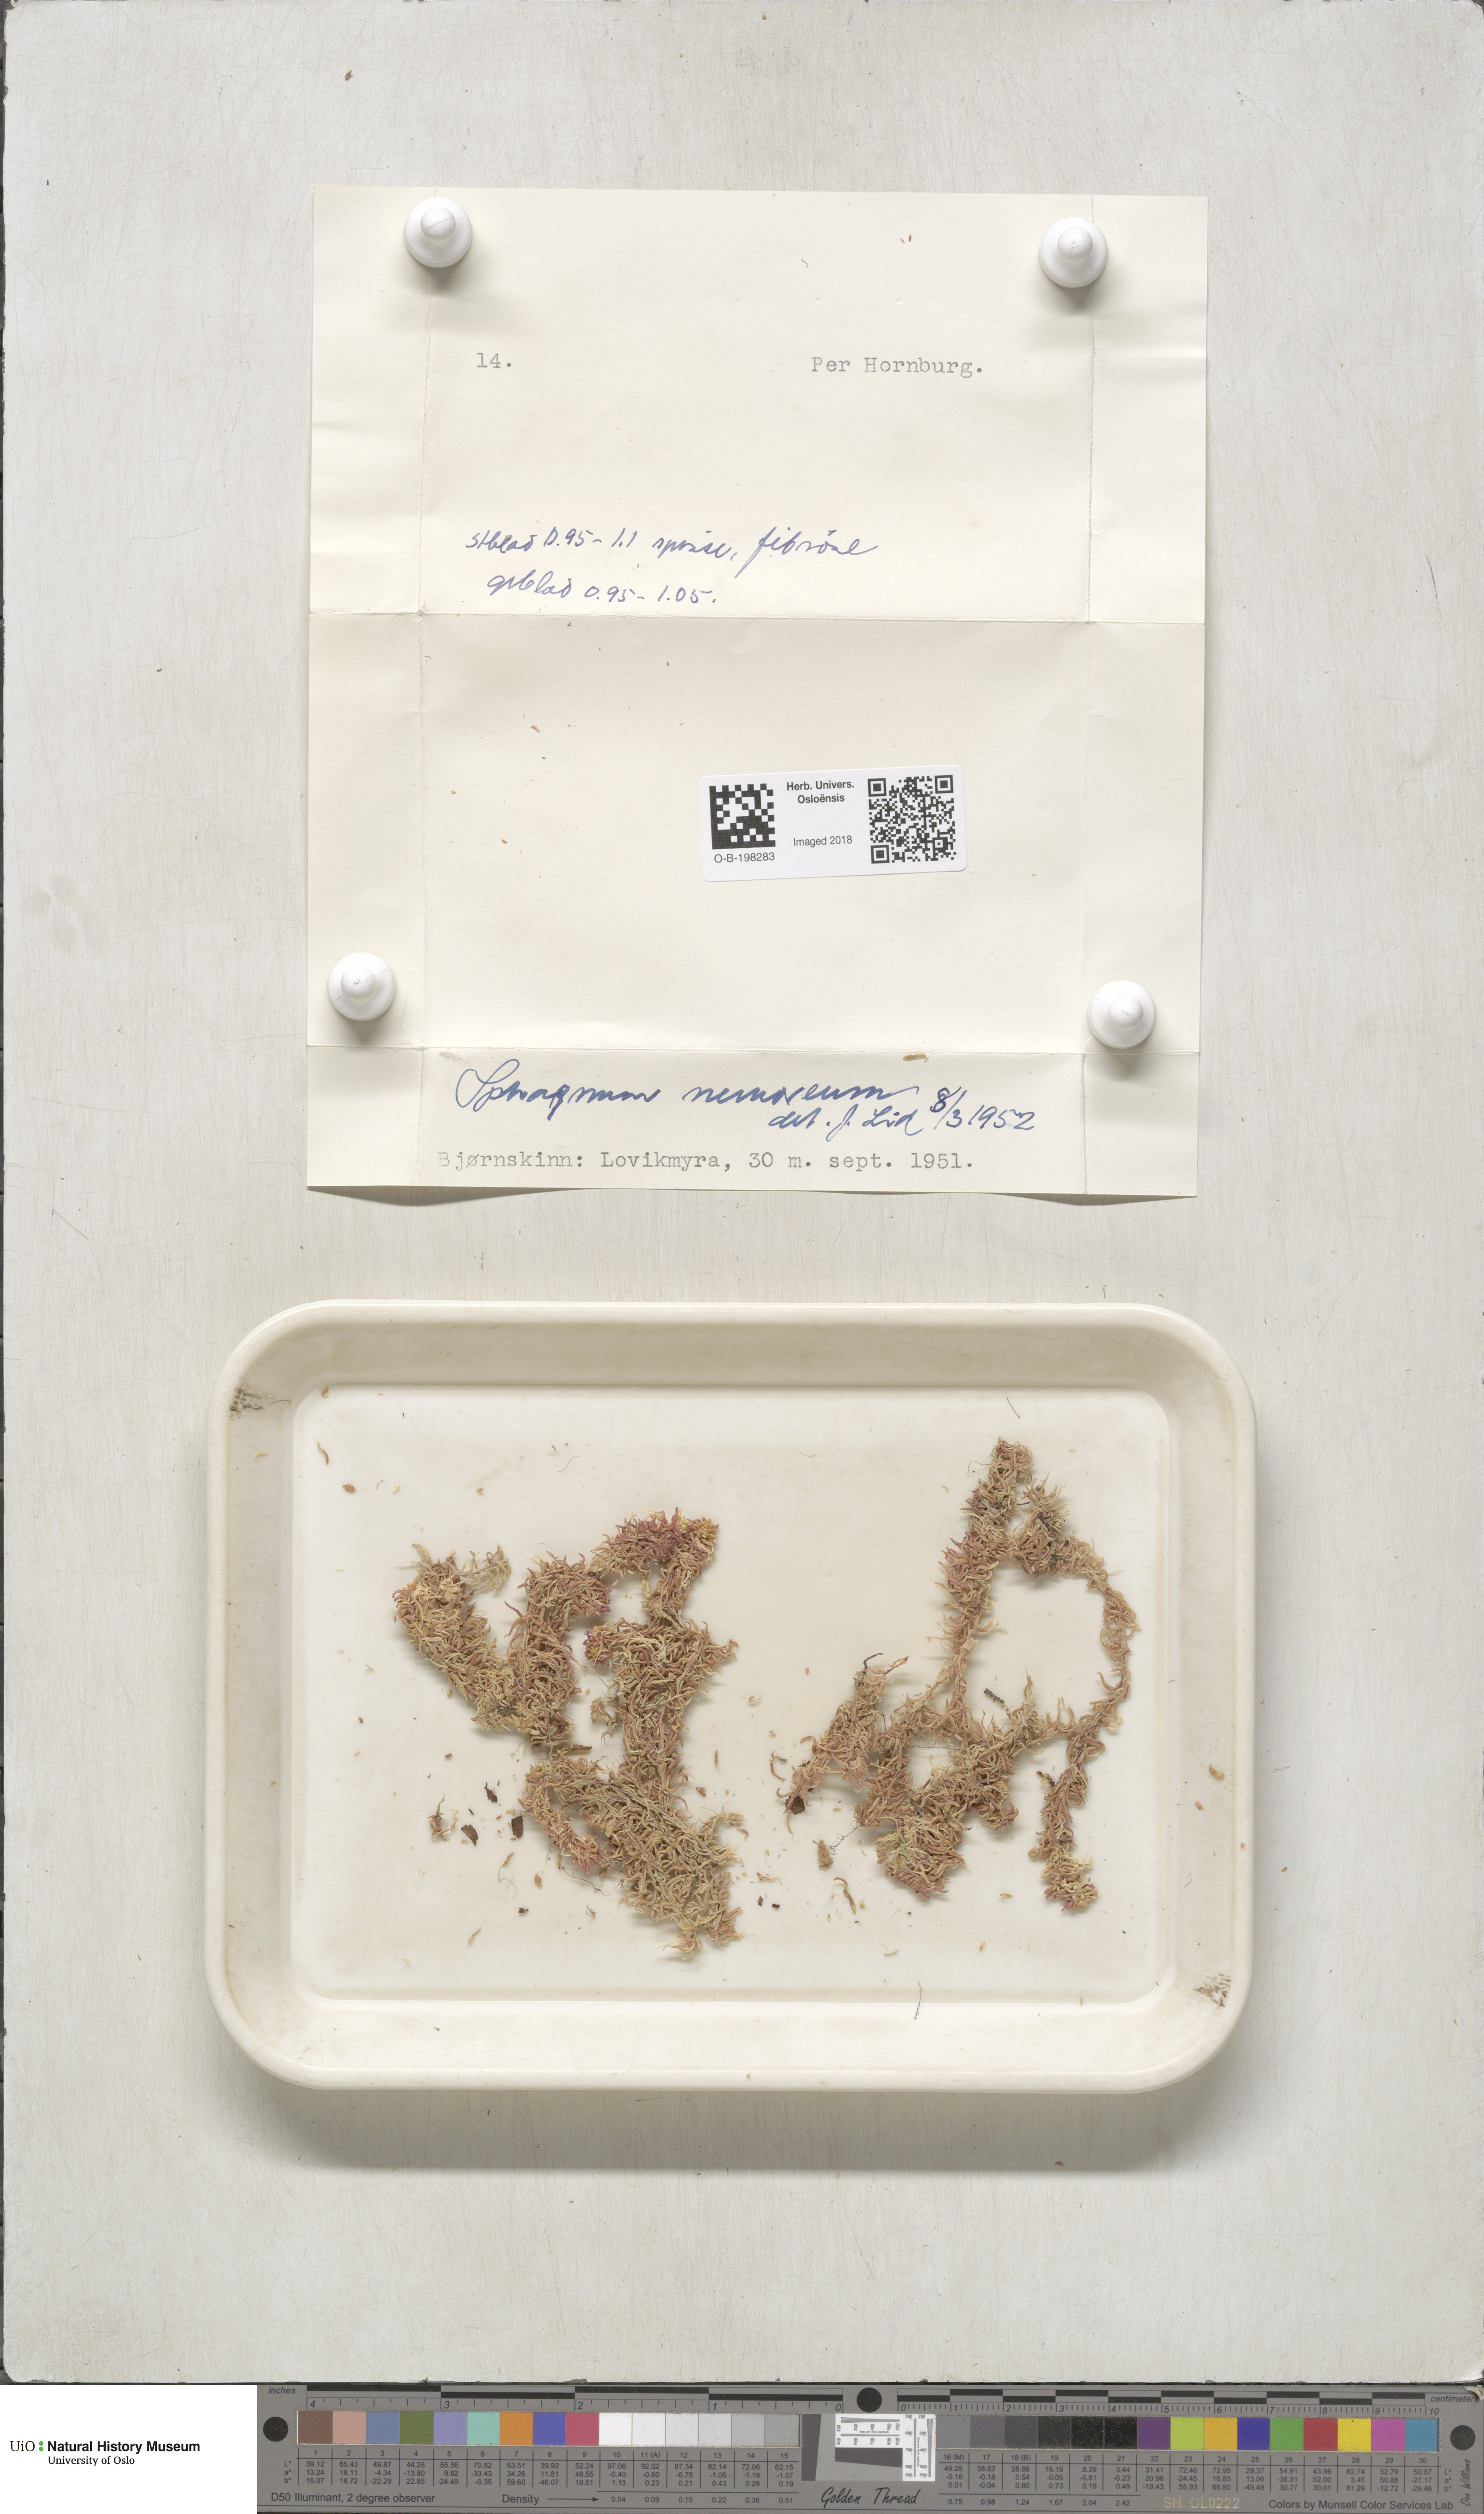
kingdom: Plantae
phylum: Bryophyta
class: Sphagnopsida
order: Sphagnales
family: Sphagnaceae
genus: Sphagnum
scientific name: Sphagnum capillifolium
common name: Small red peat moss
